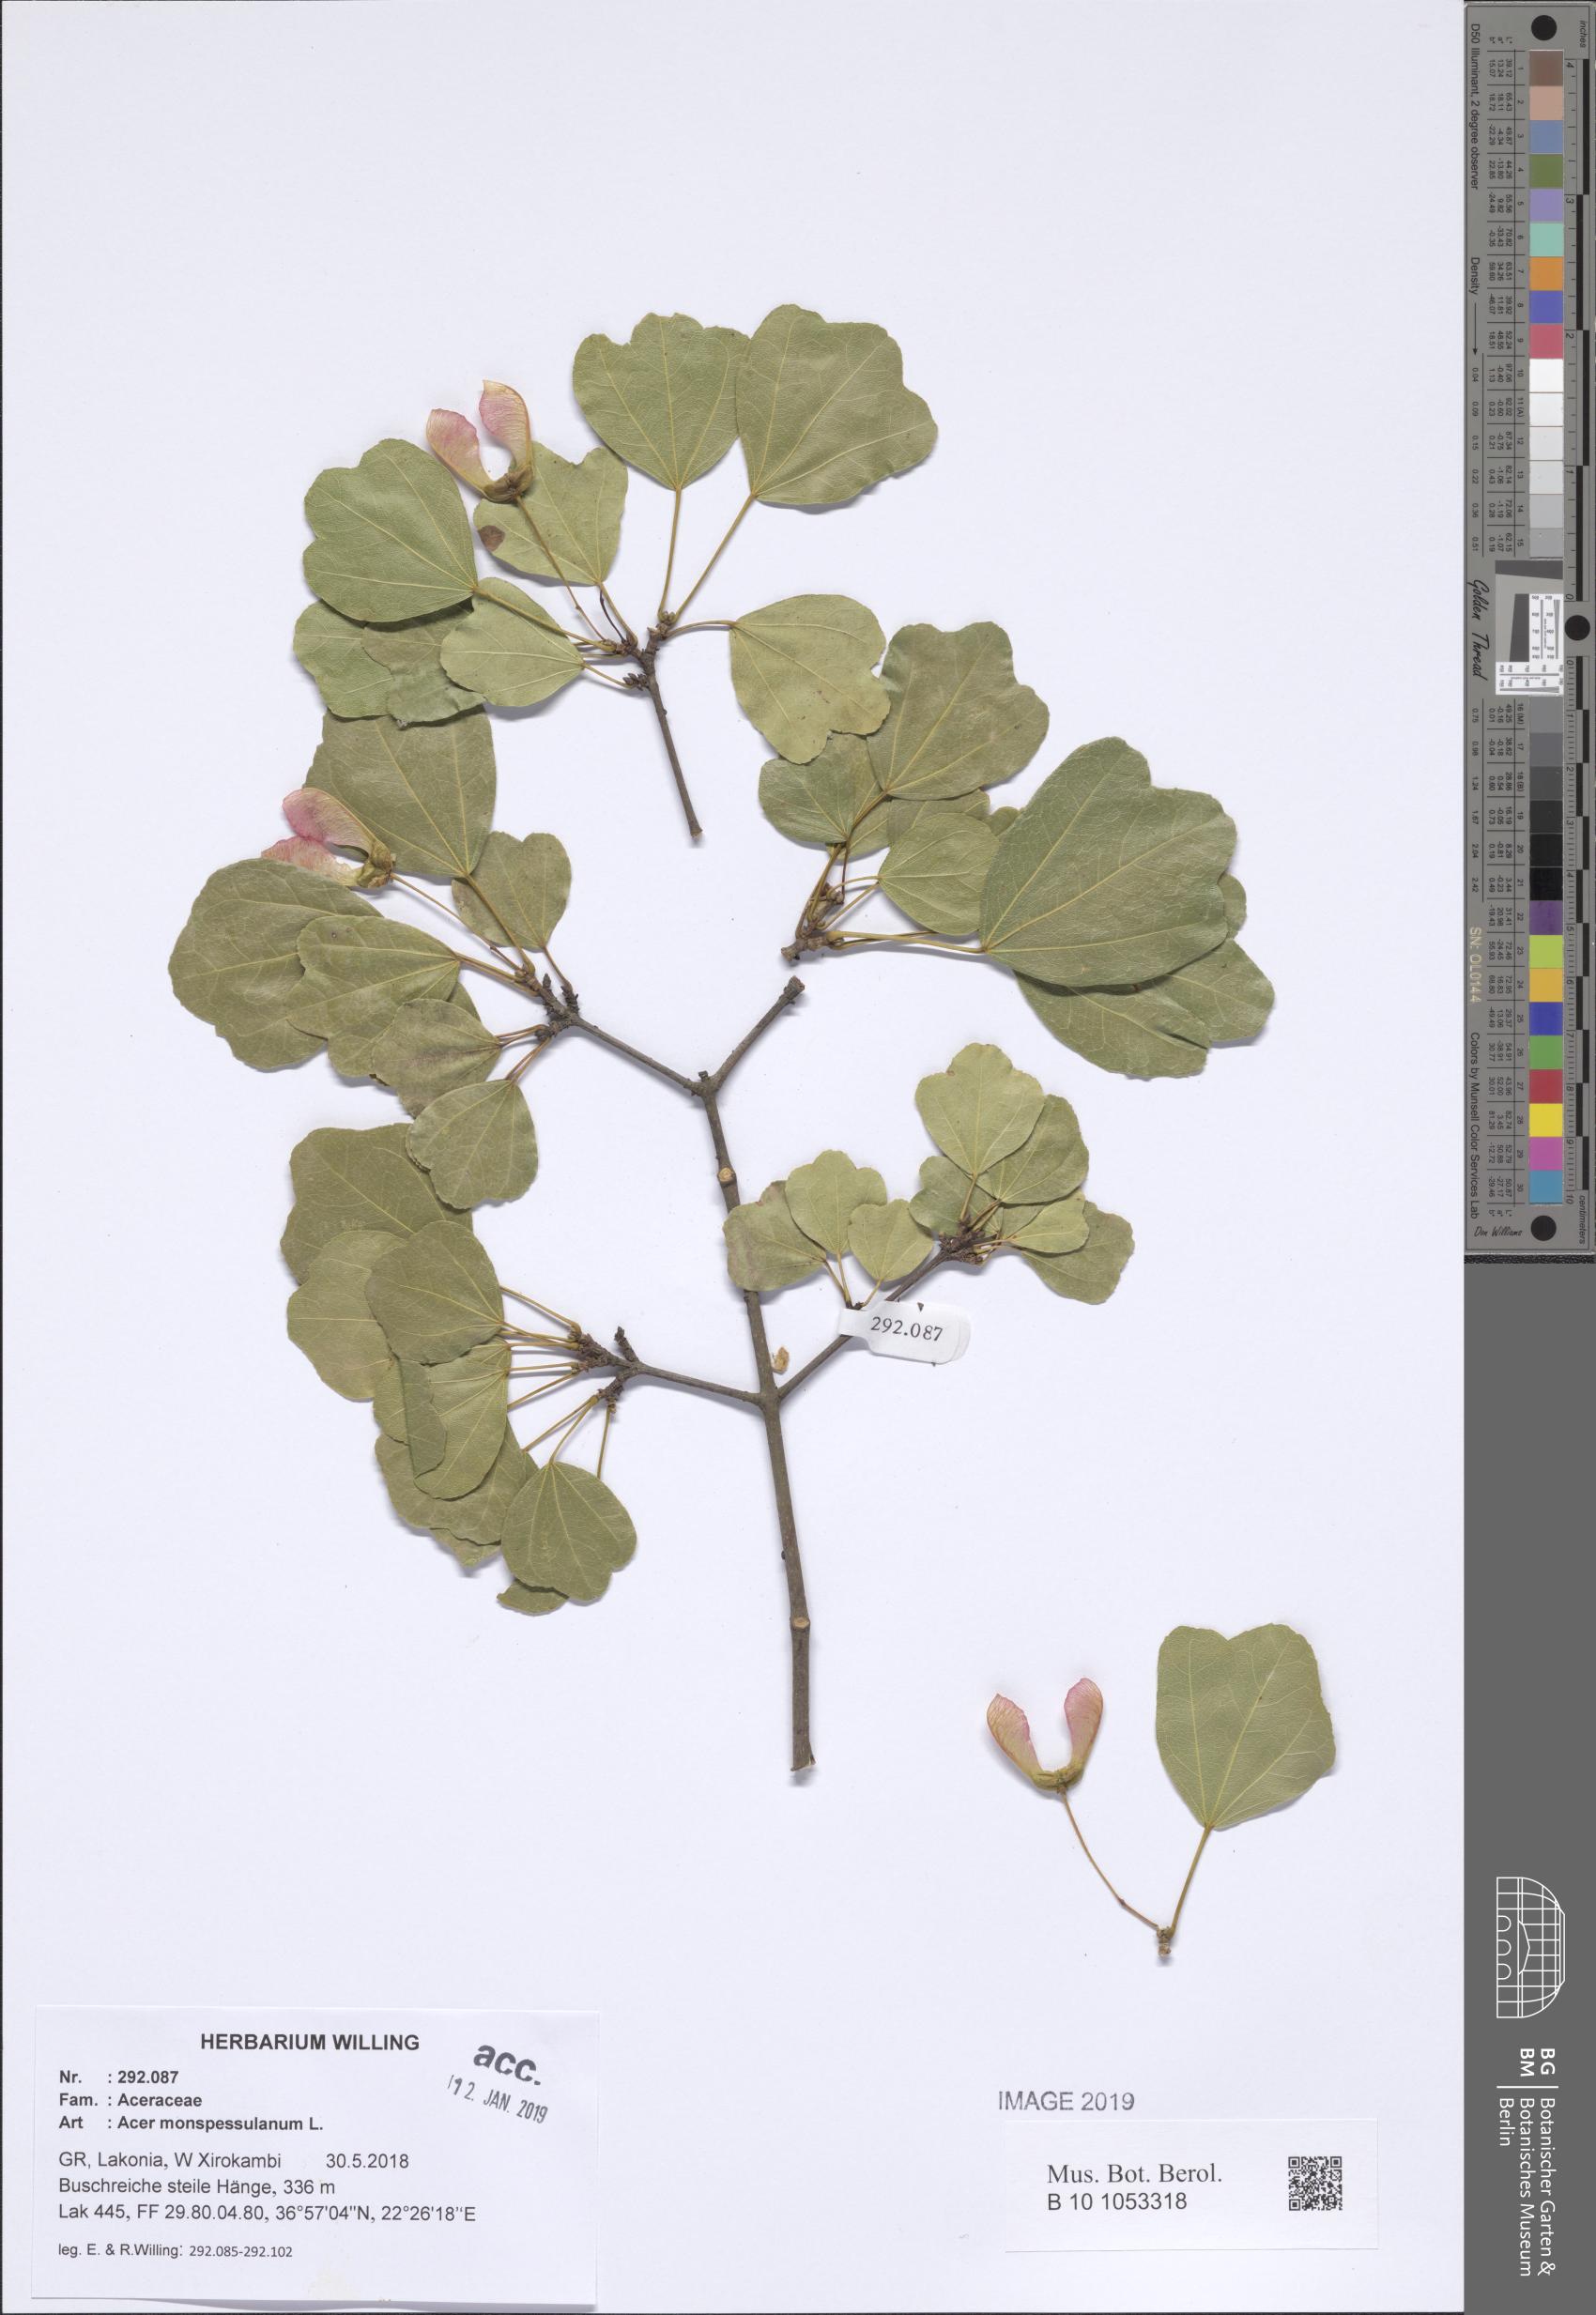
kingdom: Plantae
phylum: Tracheophyta
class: Magnoliopsida
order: Sapindales
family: Sapindaceae
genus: Acer
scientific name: Acer monspessulanum
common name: Montpellier maple
